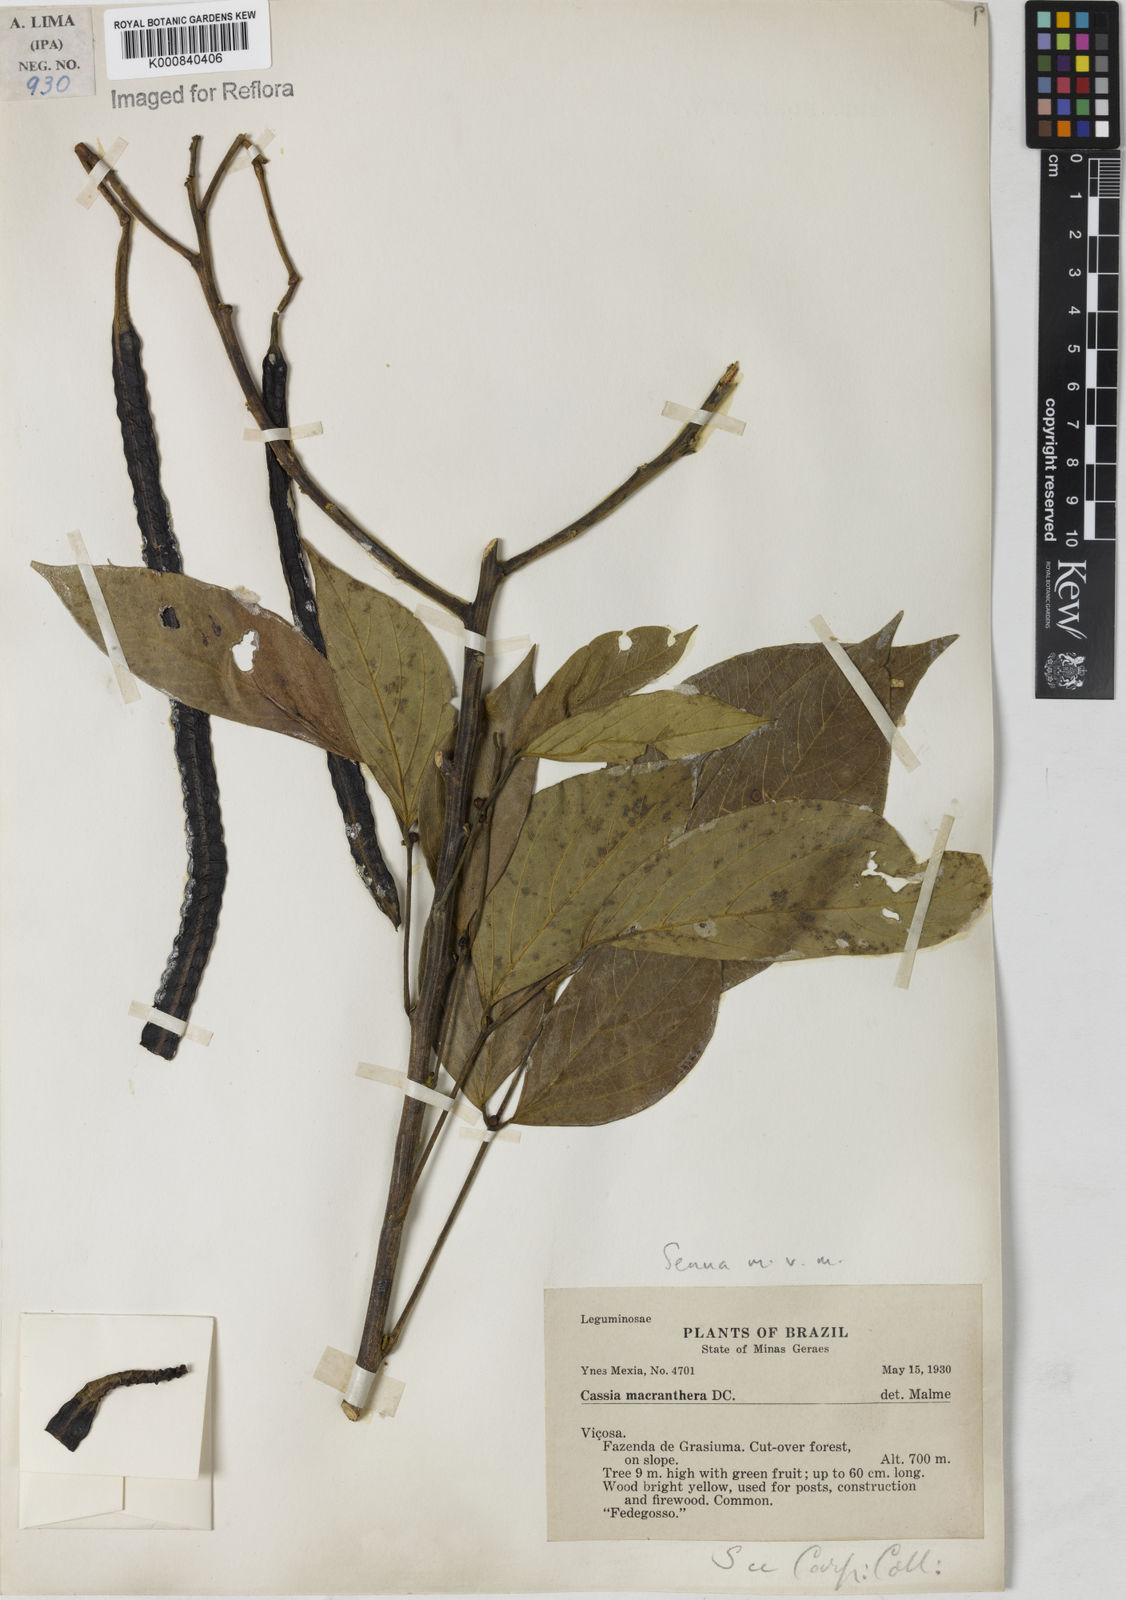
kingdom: Plantae
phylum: Tracheophyta
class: Magnoliopsida
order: Fabales
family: Fabaceae
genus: Senna
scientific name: Senna macranthera
